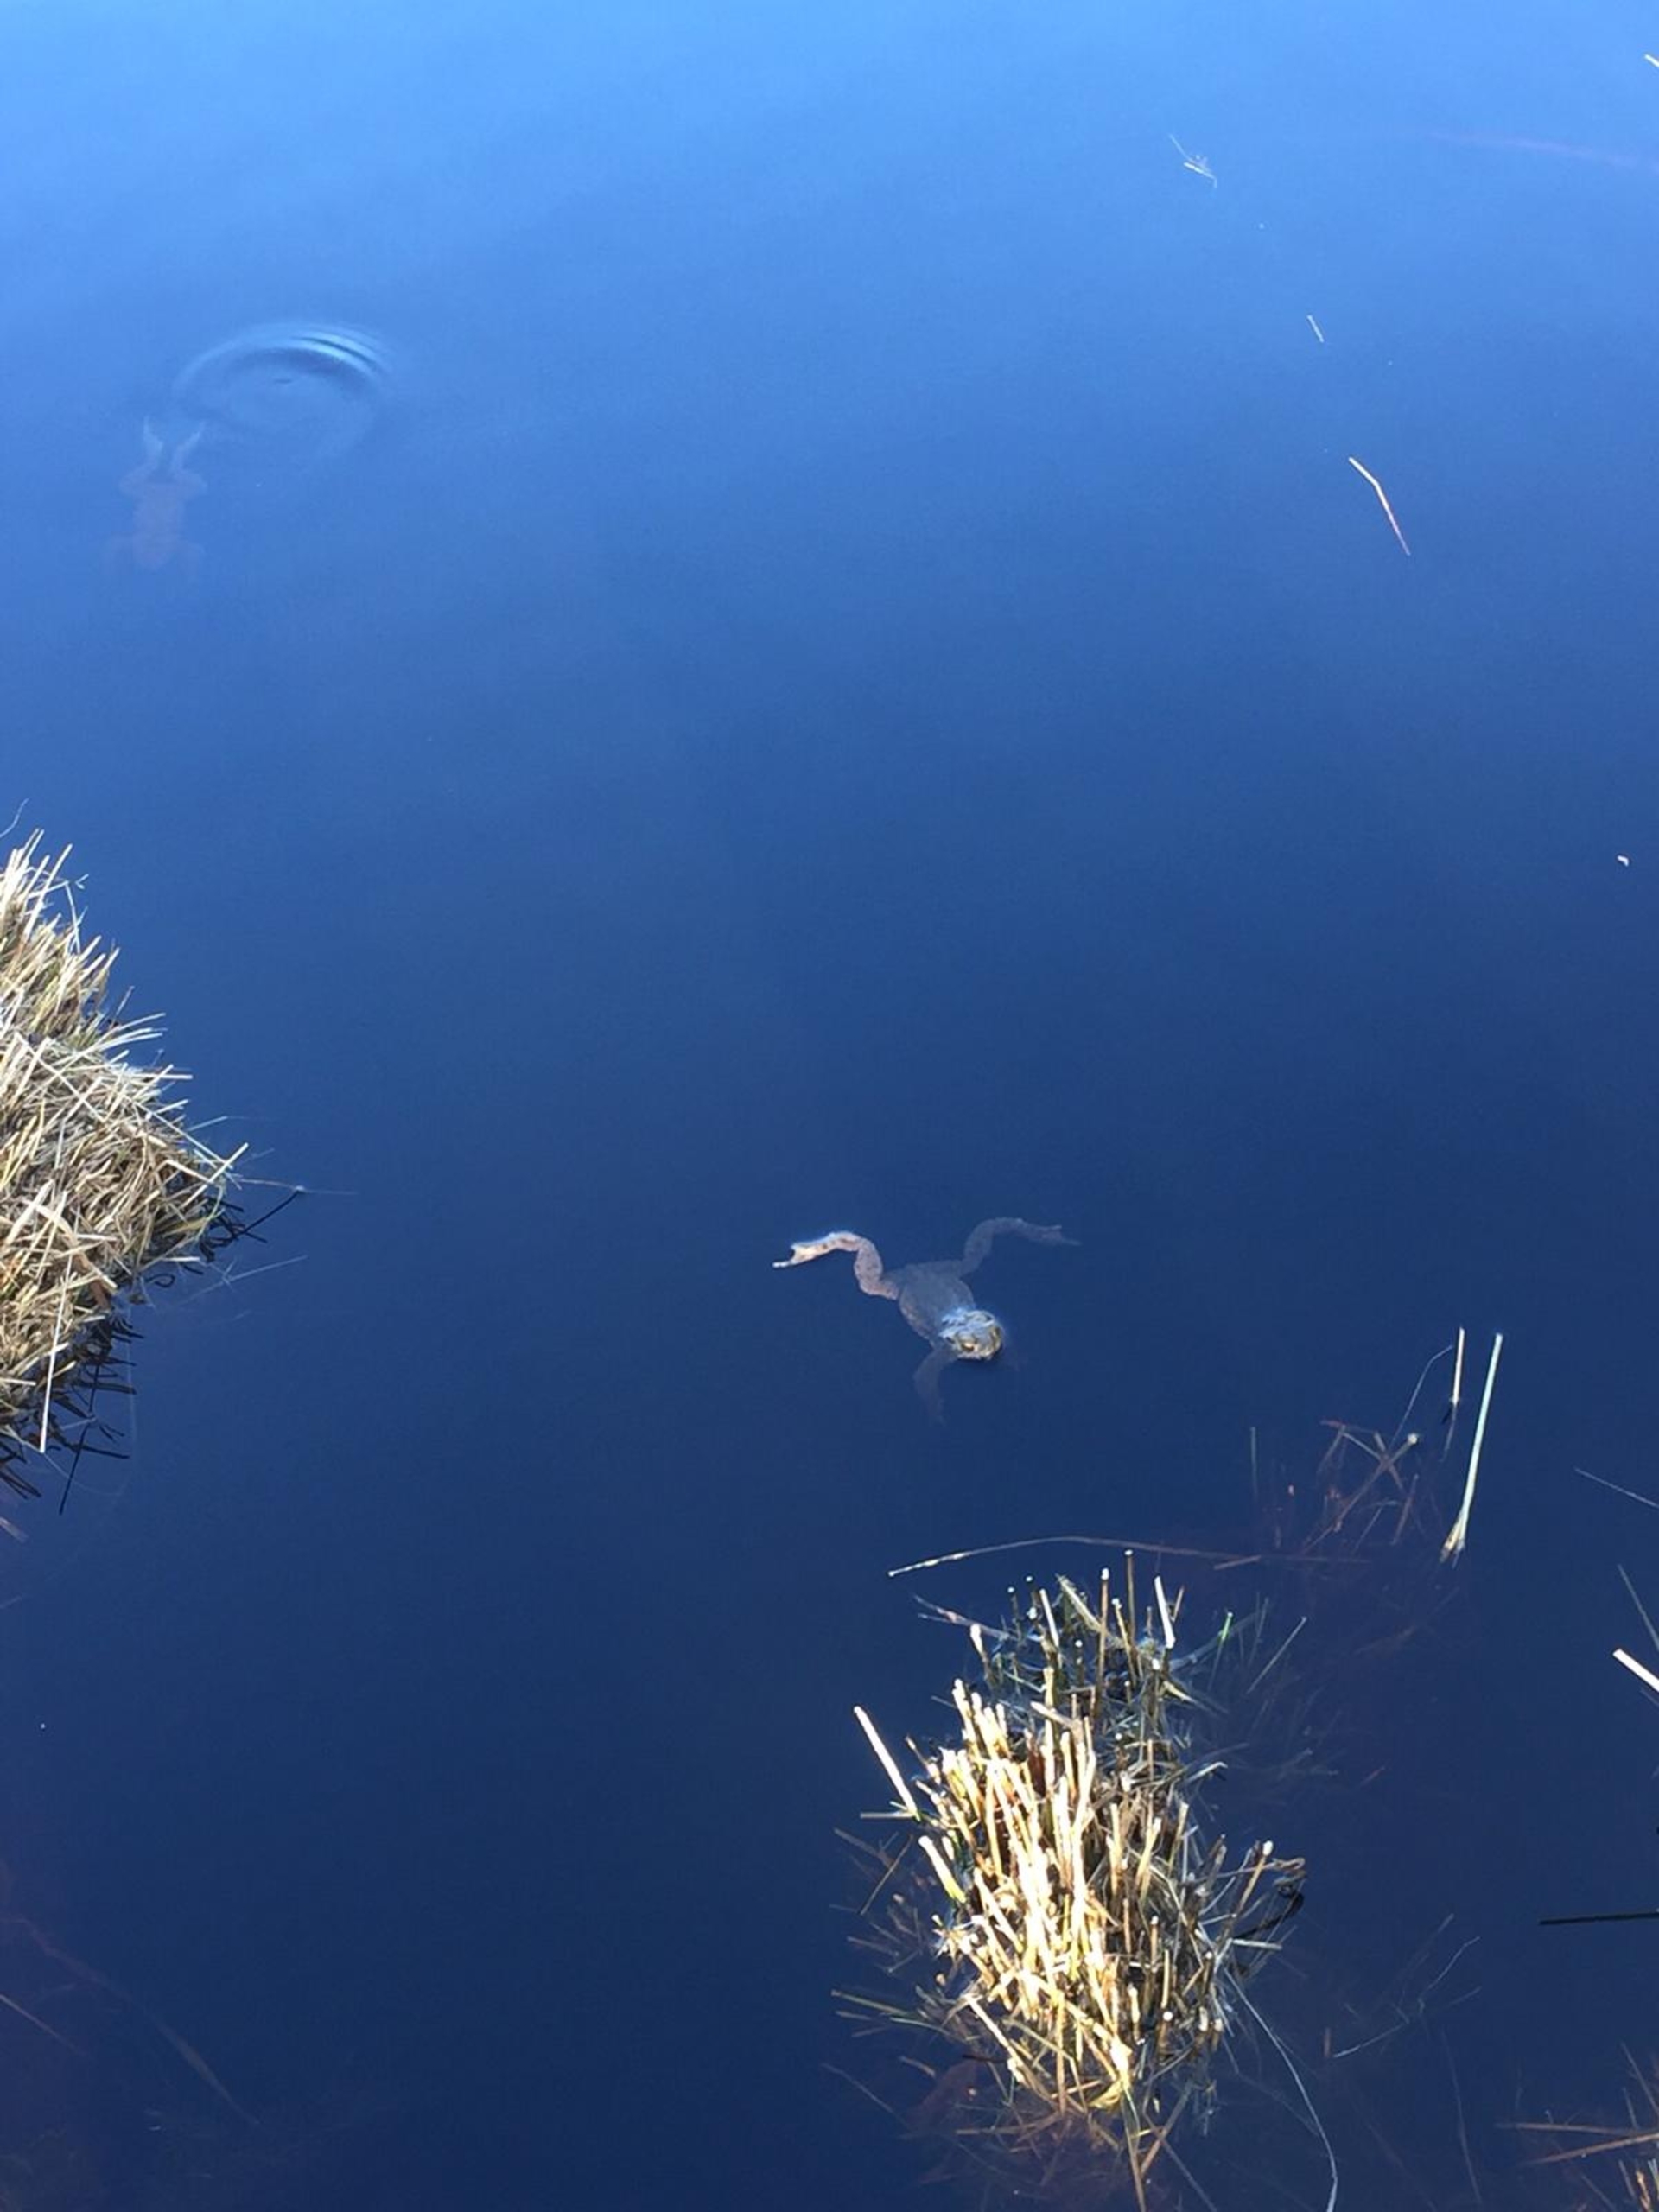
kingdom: Animalia
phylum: Chordata
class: Amphibia
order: Anura
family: Bufonidae
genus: Bufo
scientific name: Bufo bufo
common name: Skrubtudse
